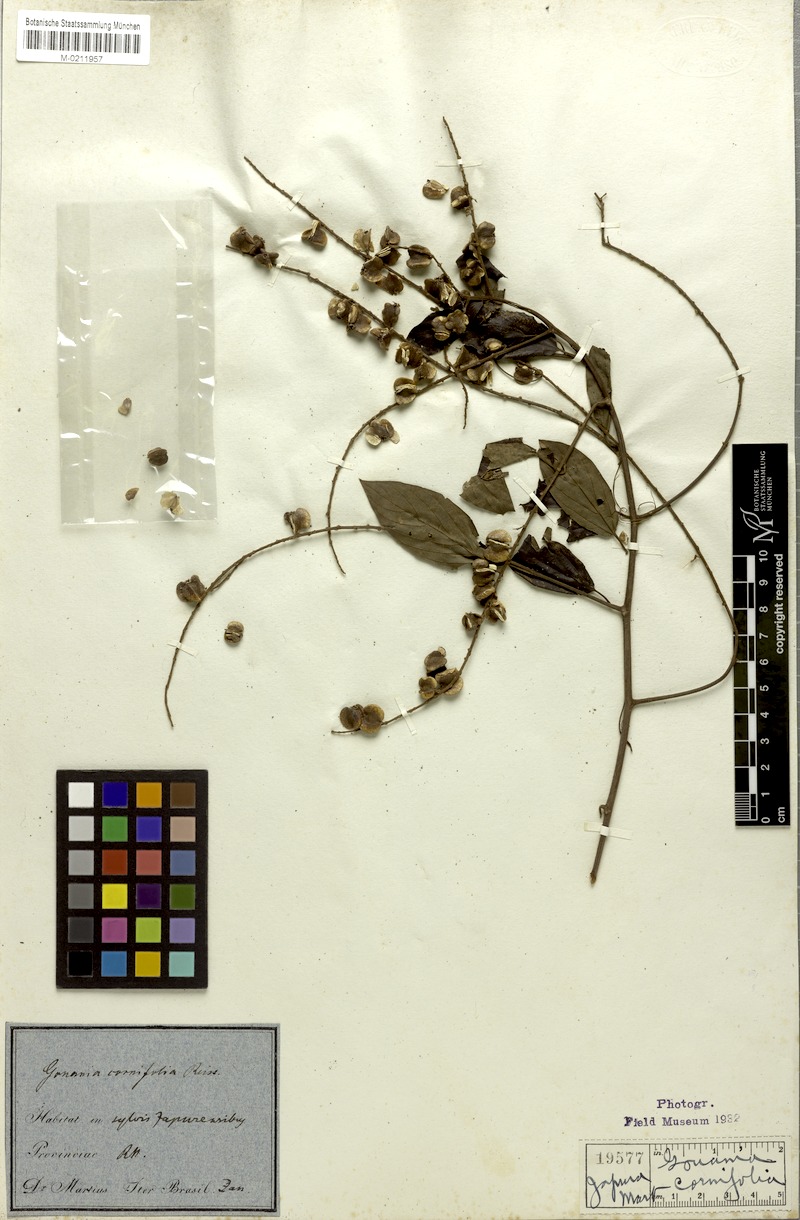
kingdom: Plantae
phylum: Tracheophyta
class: Magnoliopsida
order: Rosales
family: Rhamnaceae
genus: Gouania
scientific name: Gouania cornifolia
